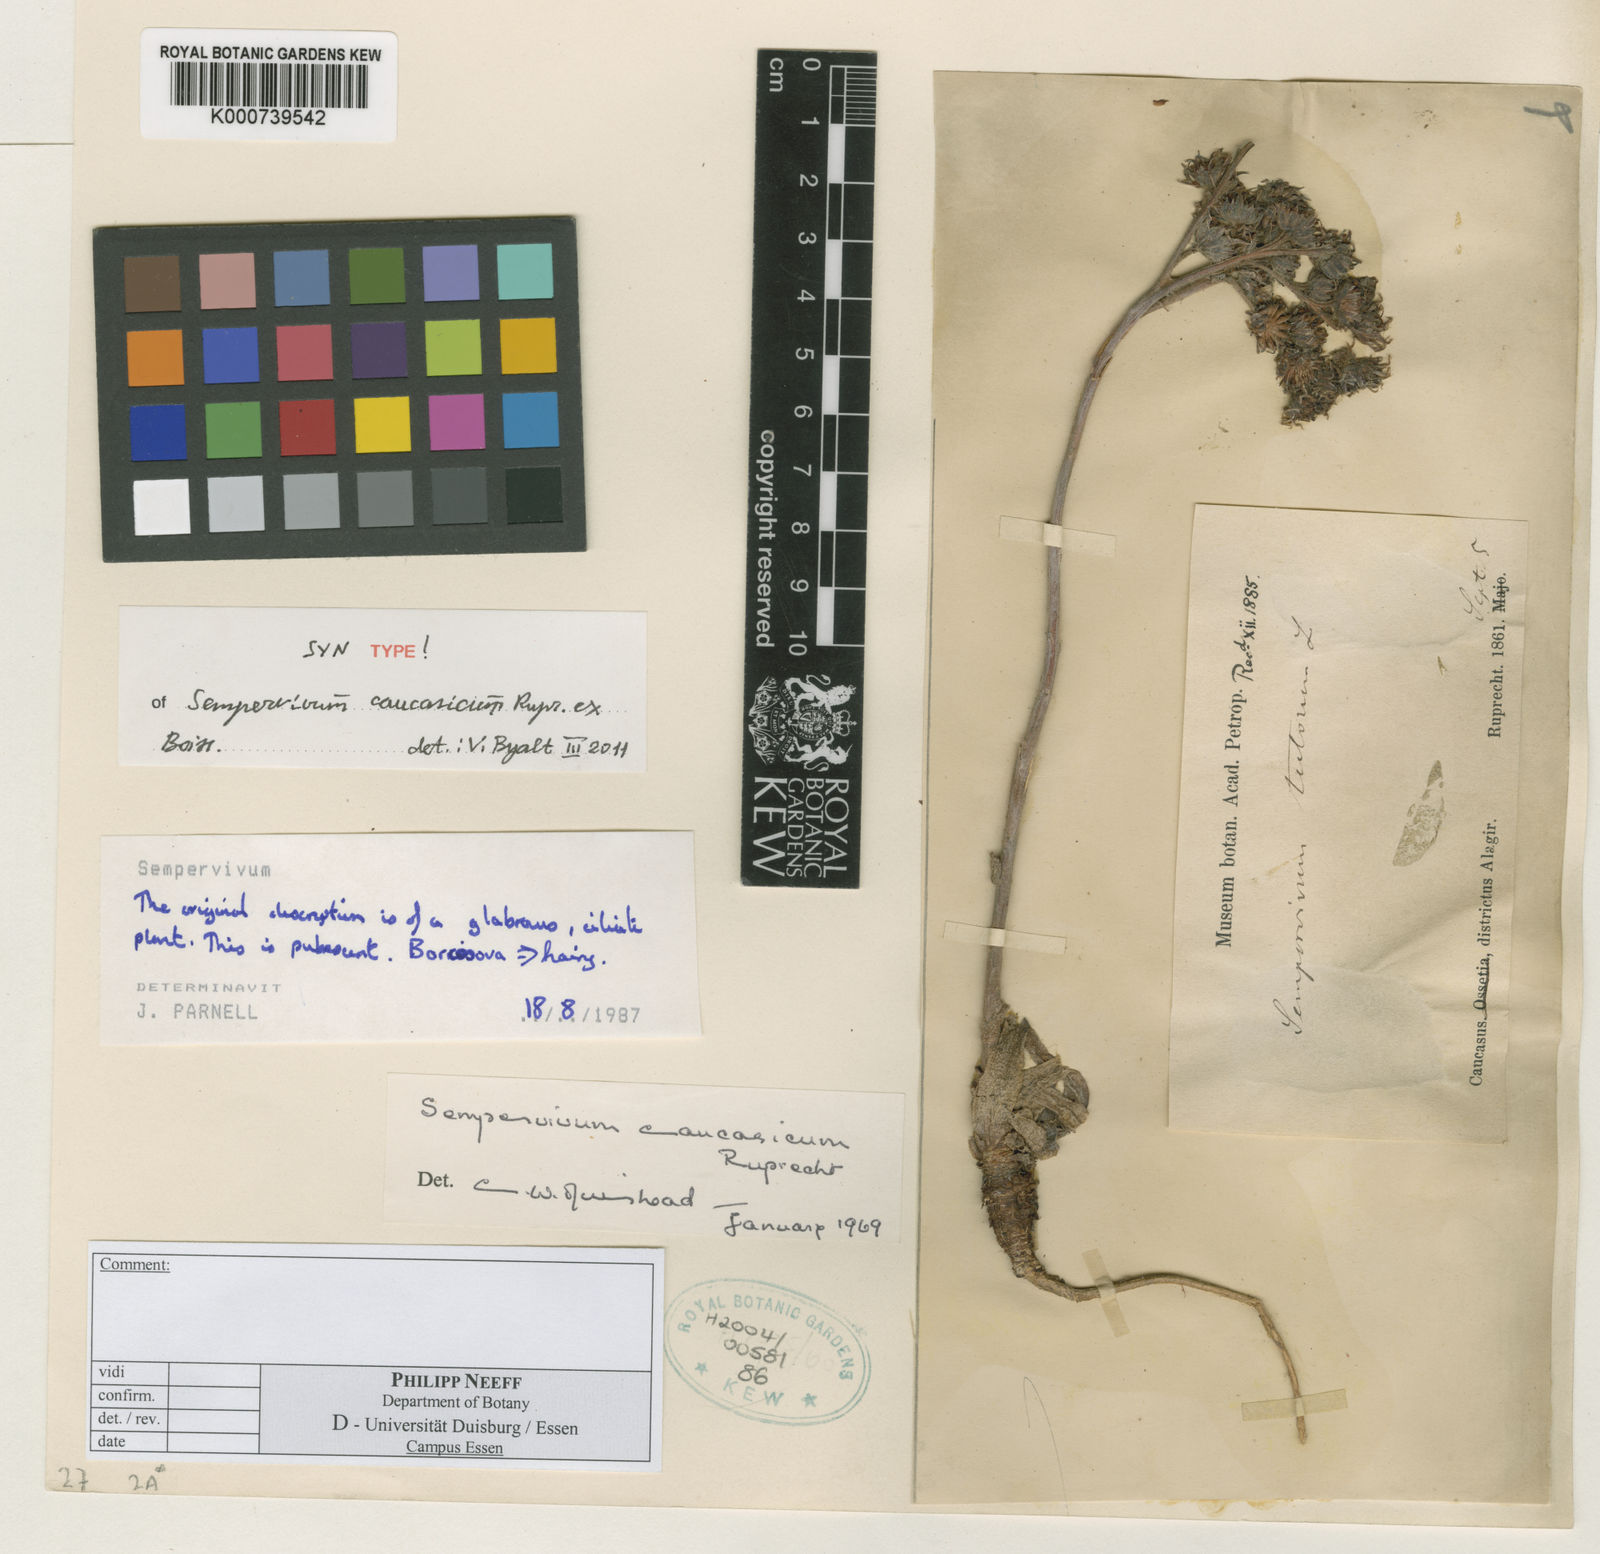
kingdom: Plantae
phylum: Tracheophyta
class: Magnoliopsida
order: Saxifragales
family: Crassulaceae
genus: Sempervivum
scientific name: Sempervivum caucasicum
